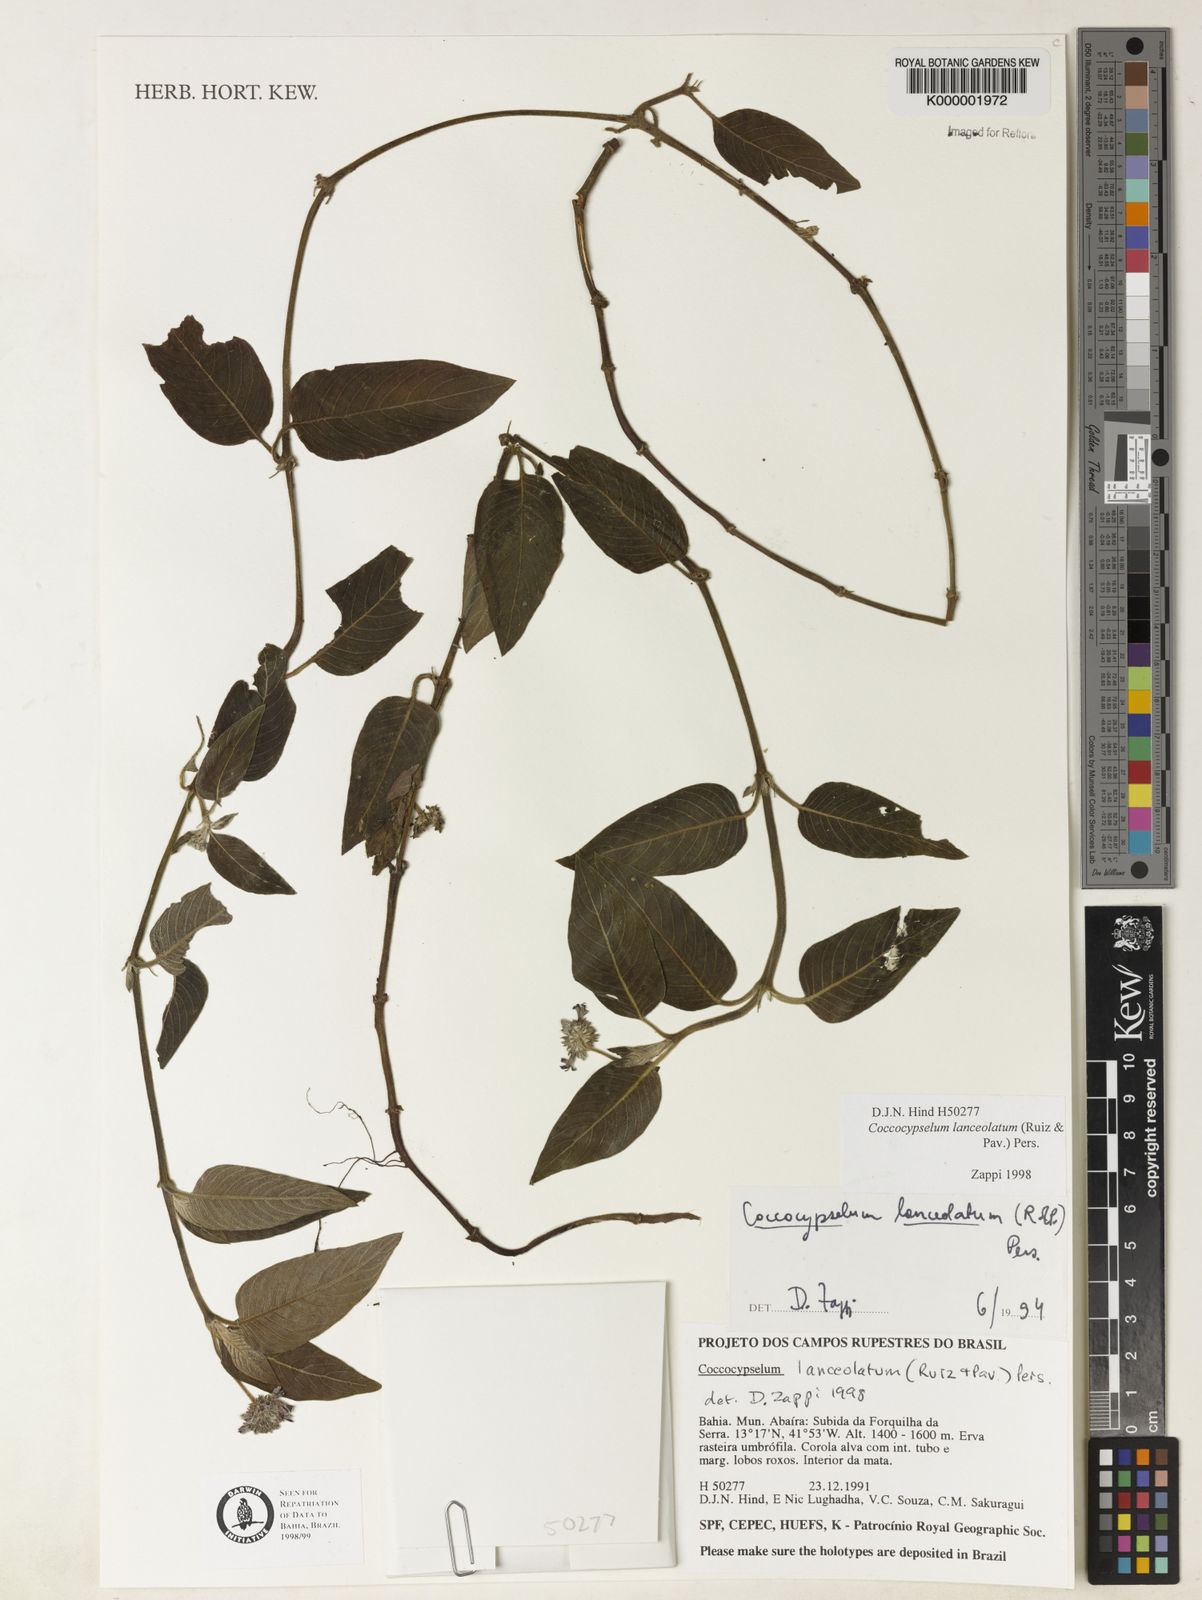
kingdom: Plantae
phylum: Tracheophyta
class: Magnoliopsida
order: Gentianales
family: Rubiaceae
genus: Coccocypselum
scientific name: Coccocypselum lanceolatum
